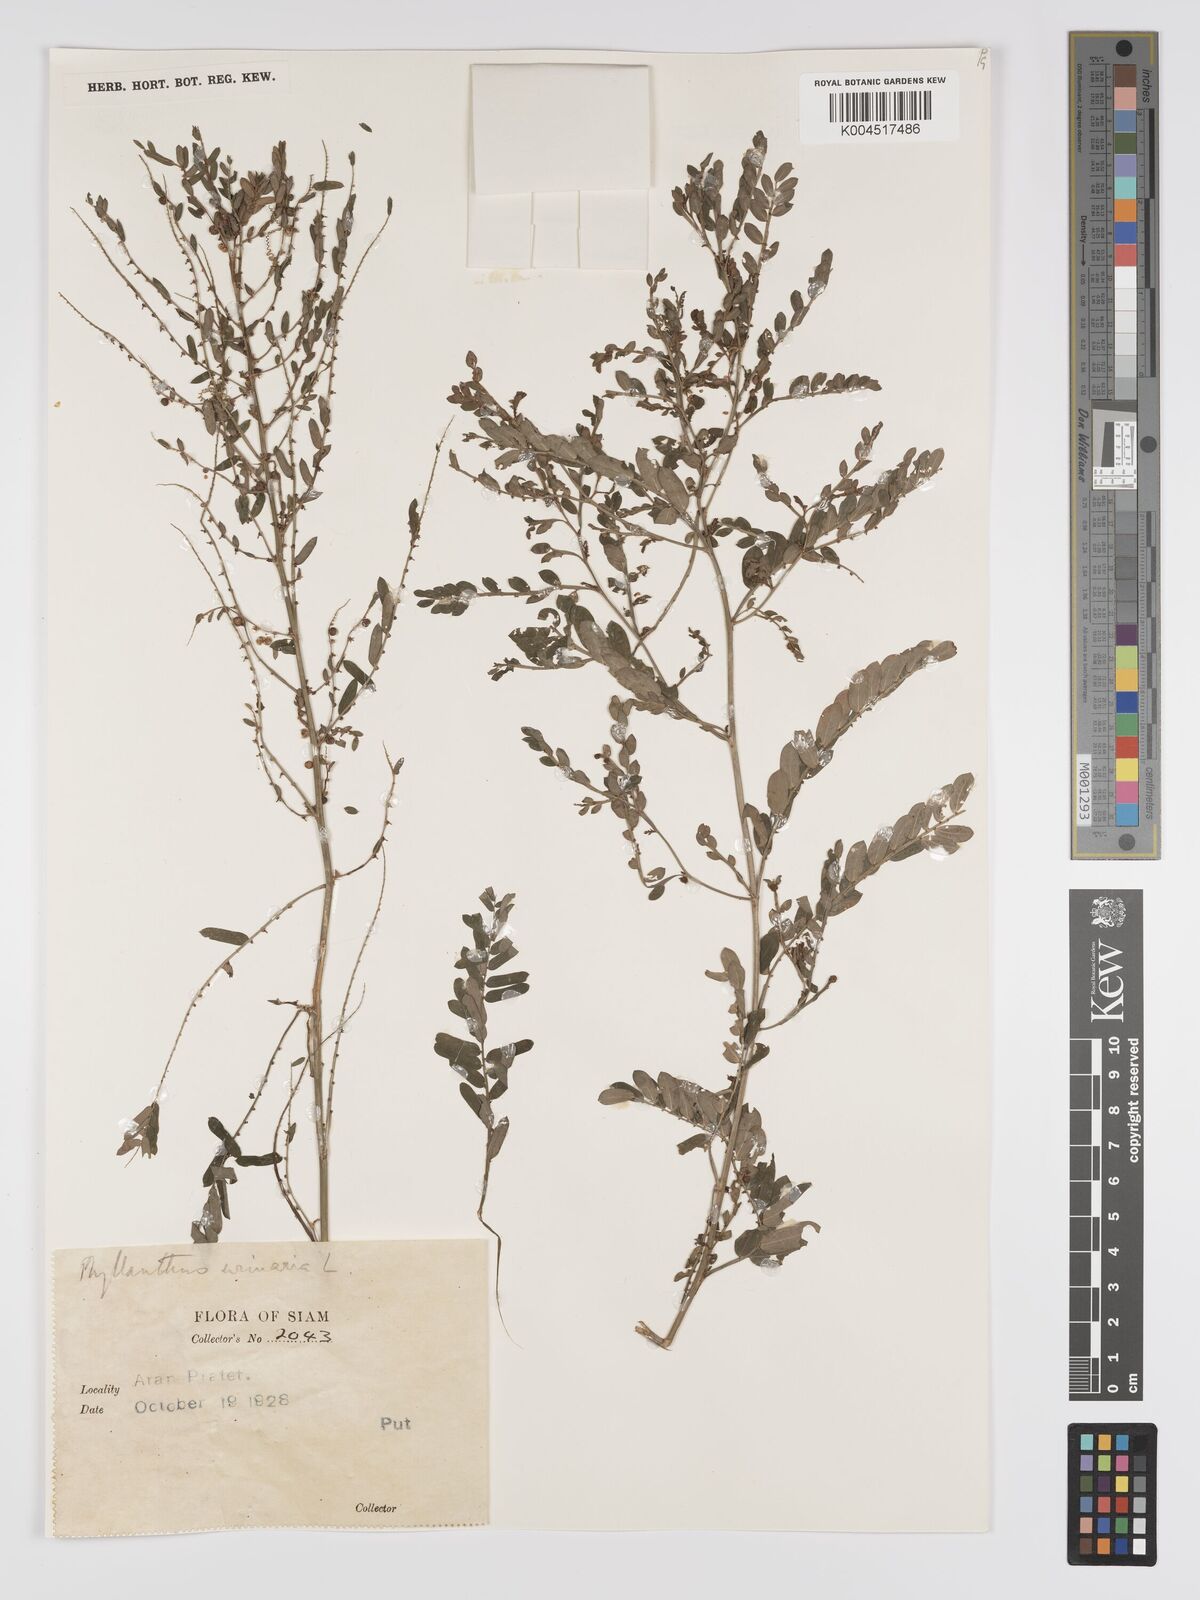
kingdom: Plantae
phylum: Tracheophyta
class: Magnoliopsida
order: Malpighiales
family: Phyllanthaceae
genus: Phyllanthus
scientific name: Phyllanthus urinaria
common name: Chamber bitter
